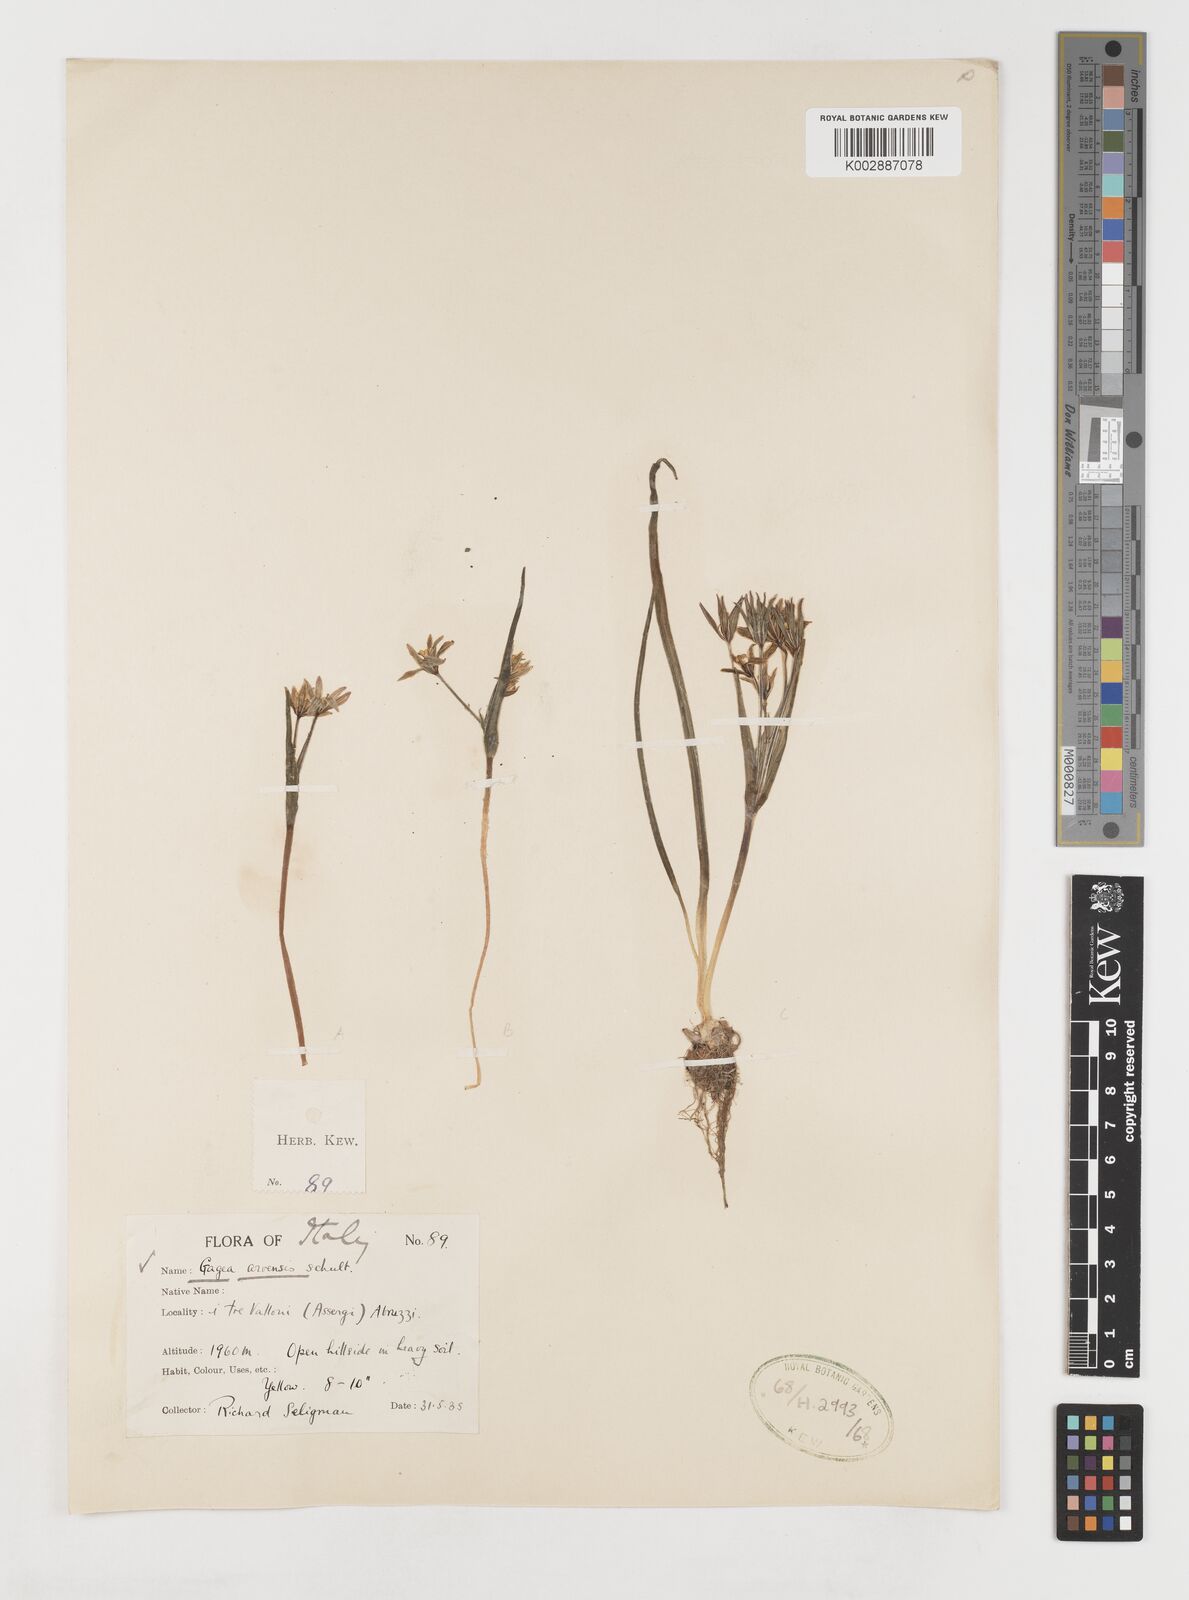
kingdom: Plantae
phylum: Tracheophyta
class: Liliopsida
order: Liliales
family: Liliaceae
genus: Gagea
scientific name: Gagea minima
